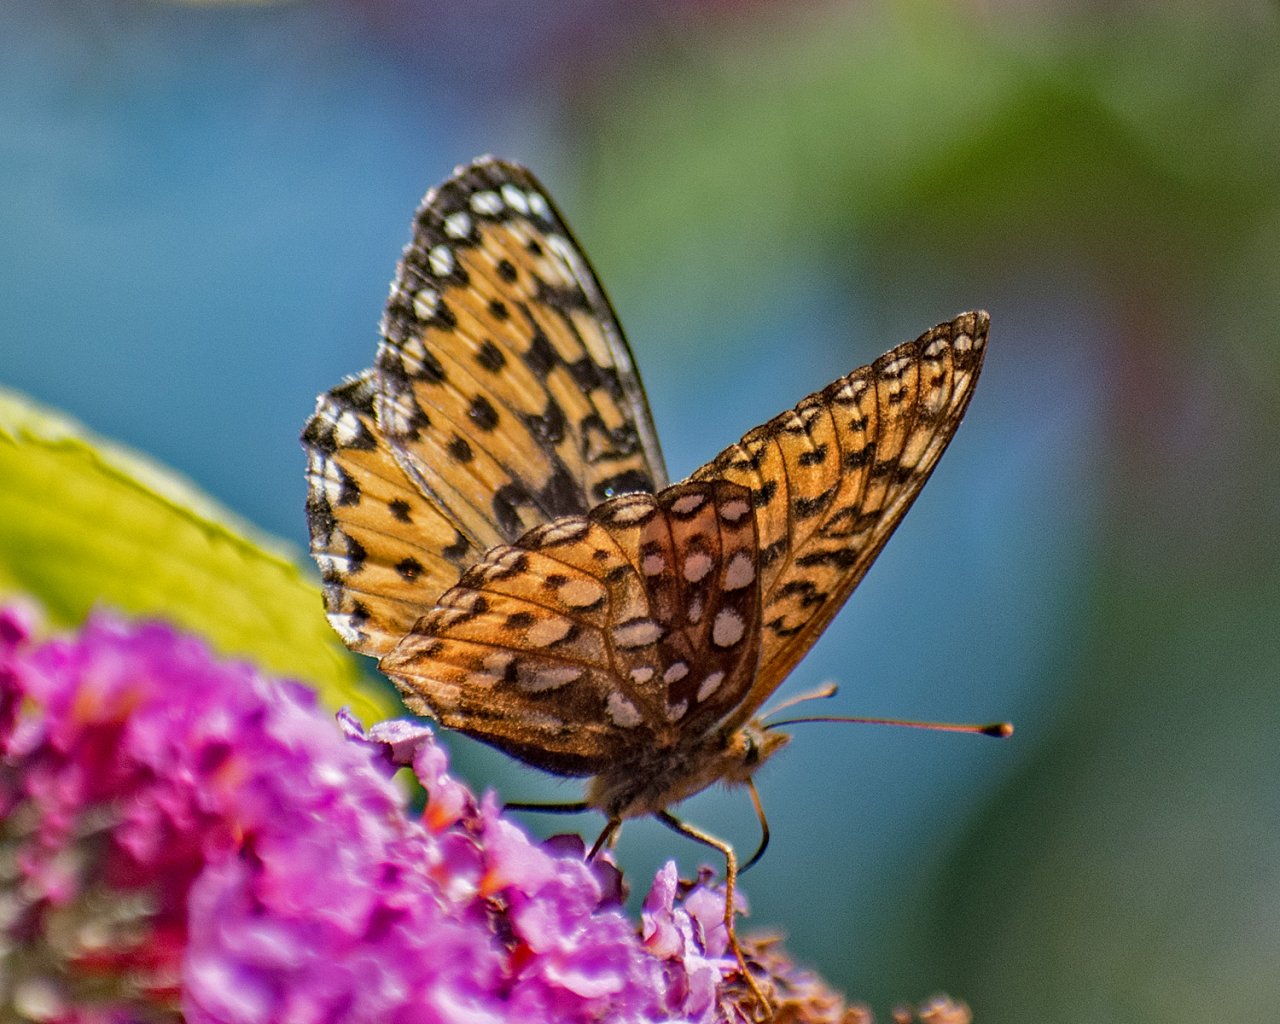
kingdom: Animalia
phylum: Arthropoda
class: Insecta
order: Lepidoptera
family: Nymphalidae
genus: Speyeria
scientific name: Speyeria atlantis
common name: Atlantis Fritillary
